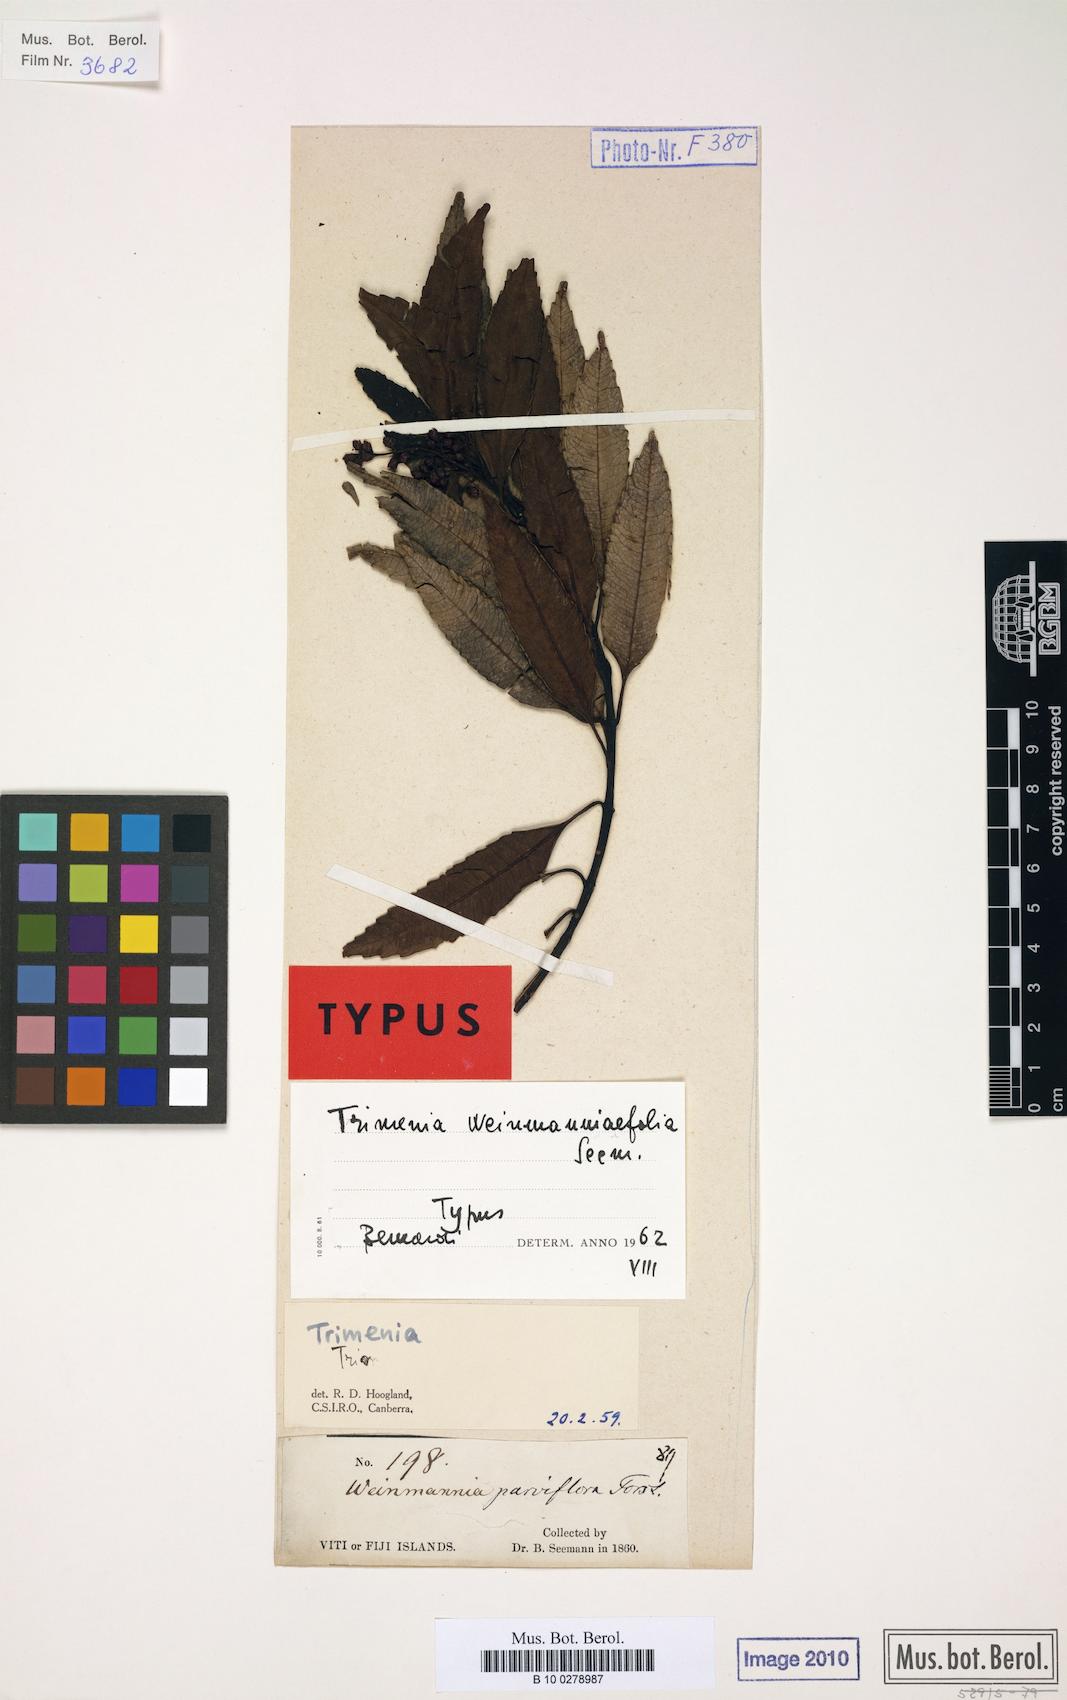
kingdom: Plantae
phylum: Tracheophyta
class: Magnoliopsida
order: Austrobaileyales
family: Trimeniaceae
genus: Trimenia
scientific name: Trimenia weinmanniifolia
